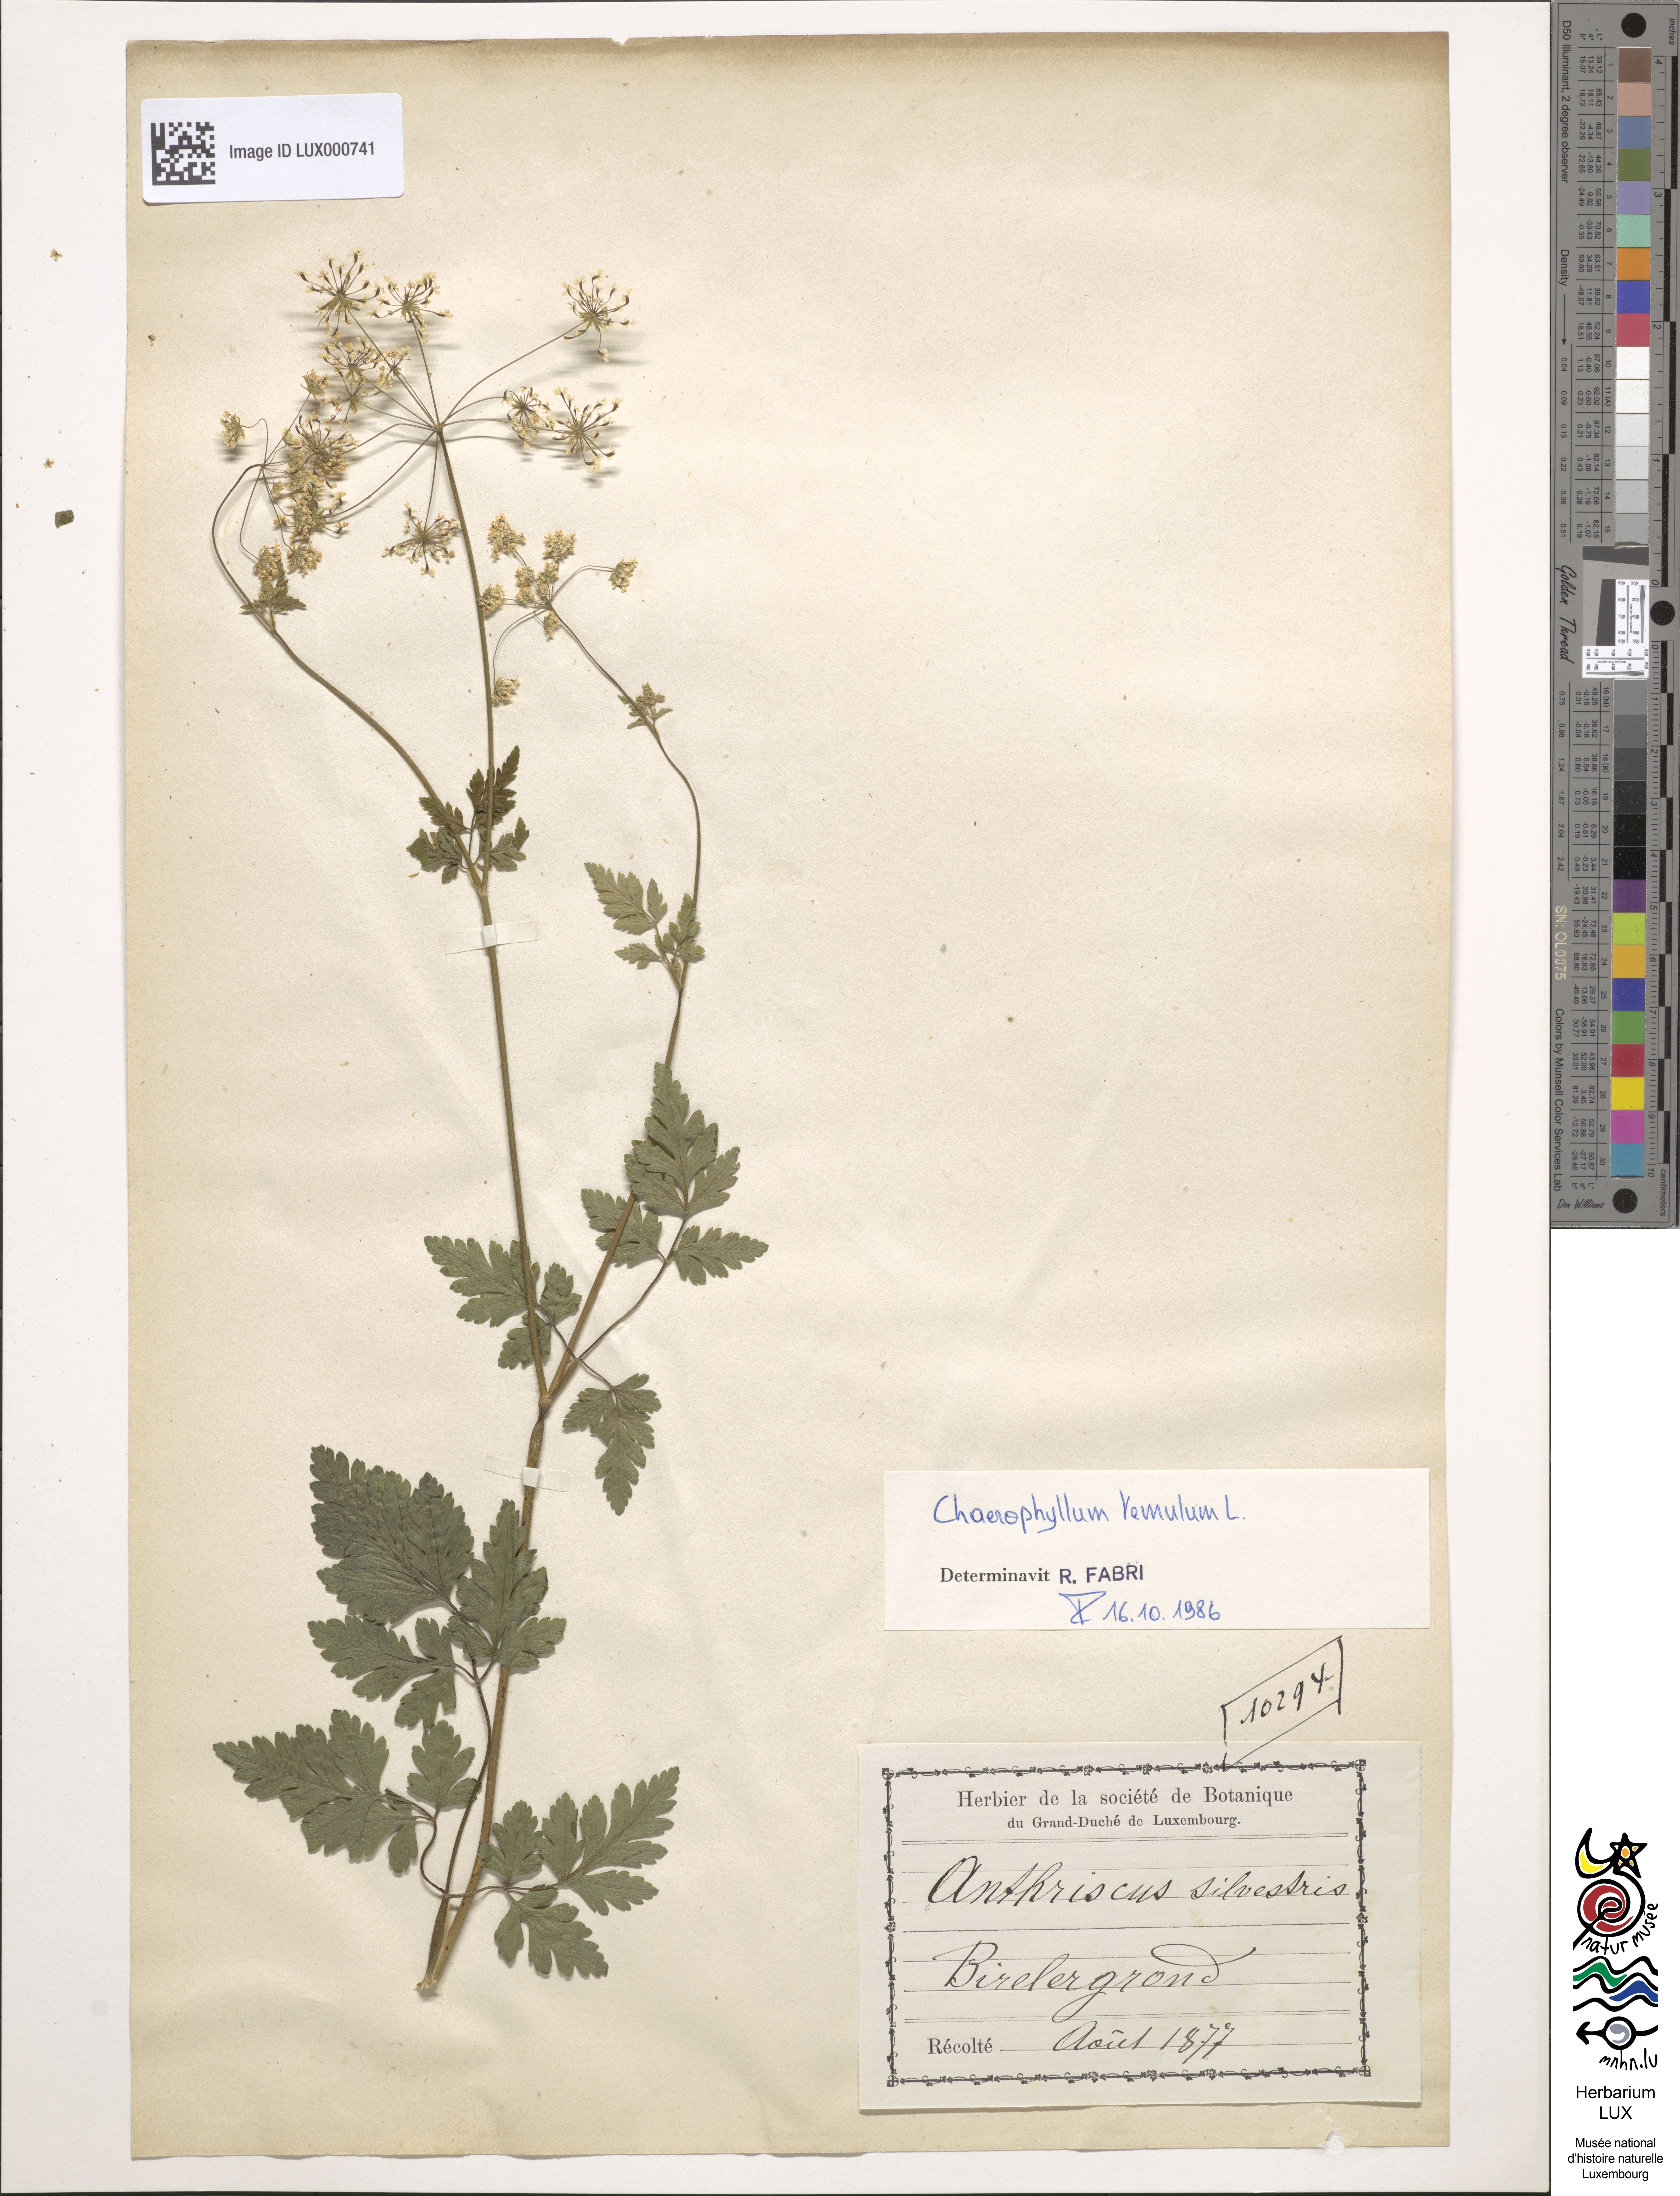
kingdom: Plantae
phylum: Tracheophyta
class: Magnoliopsida
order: Apiales
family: Apiaceae
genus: Chaerophyllum
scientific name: Chaerophyllum temulum
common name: Rough chervil
